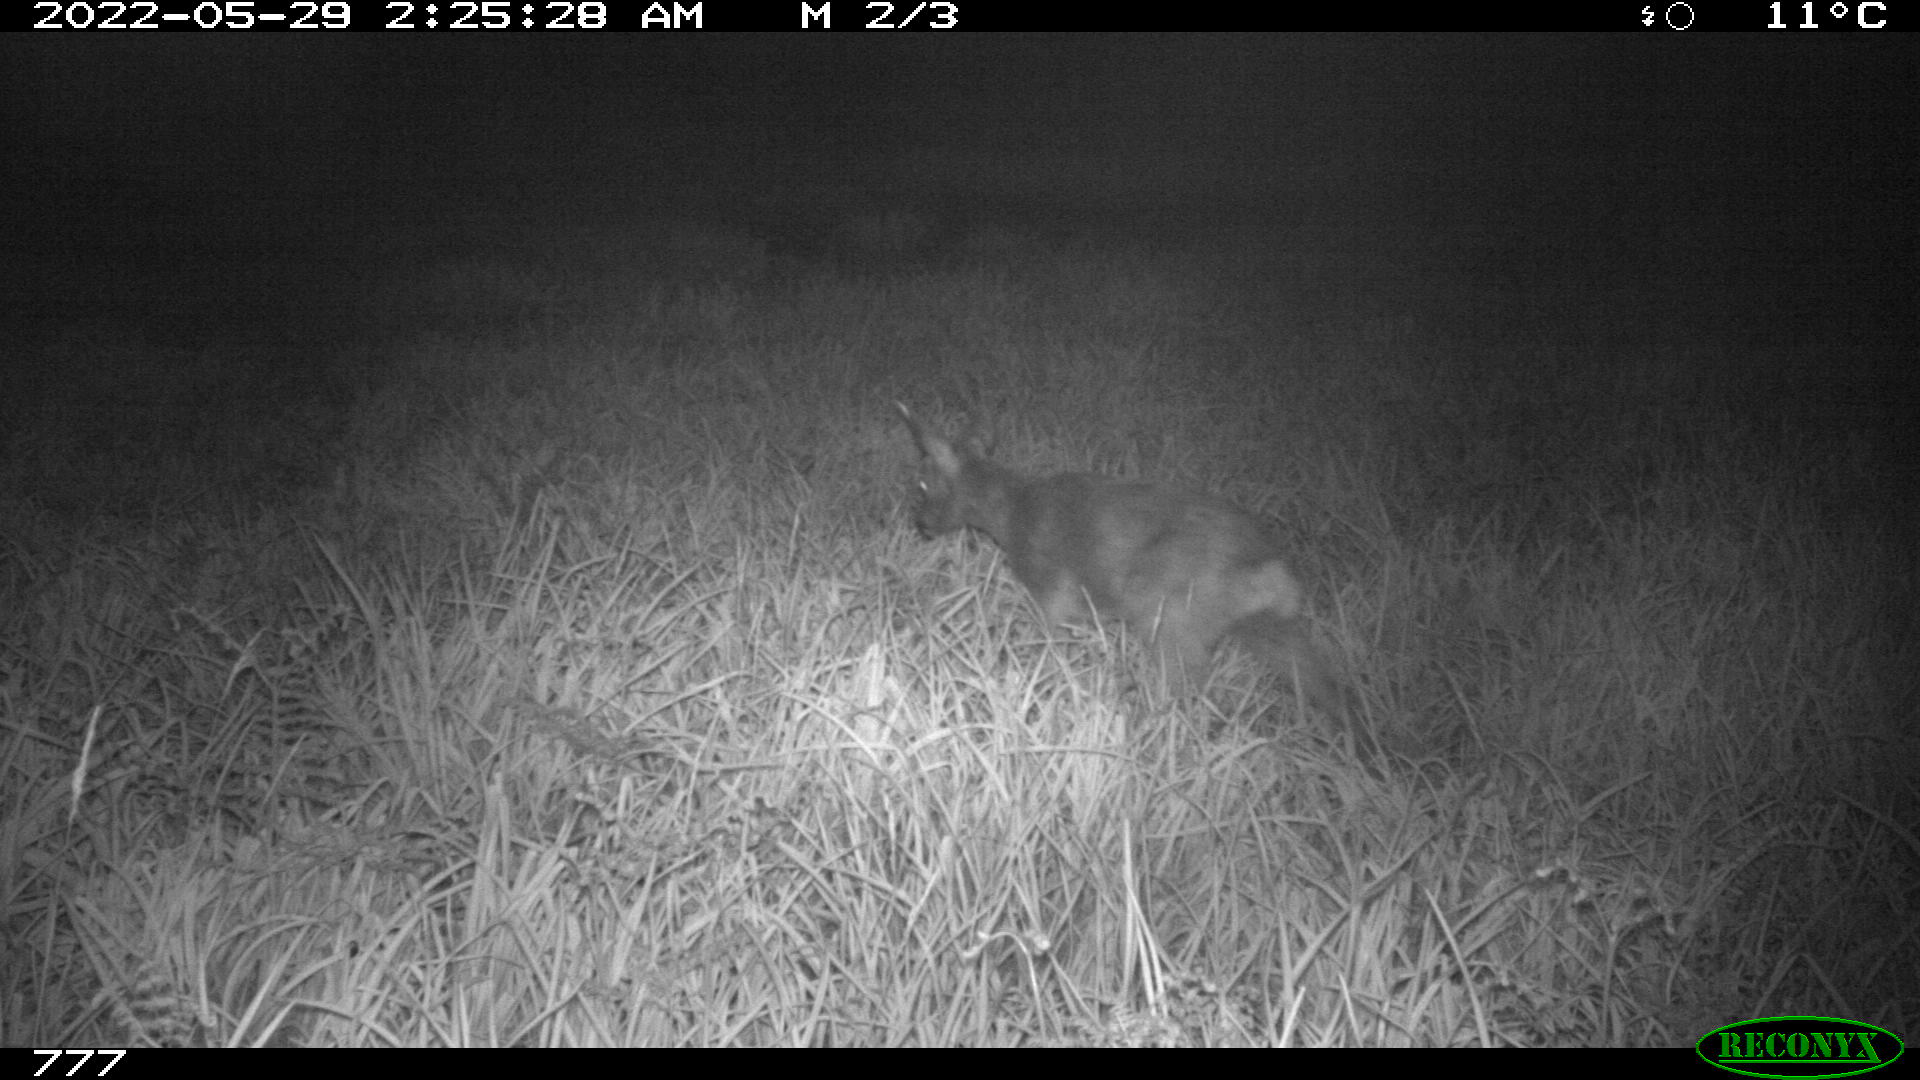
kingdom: Animalia
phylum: Chordata
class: Mammalia
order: Artiodactyla
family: Cervidae
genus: Capreolus
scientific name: Capreolus capreolus
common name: Western roe deer
